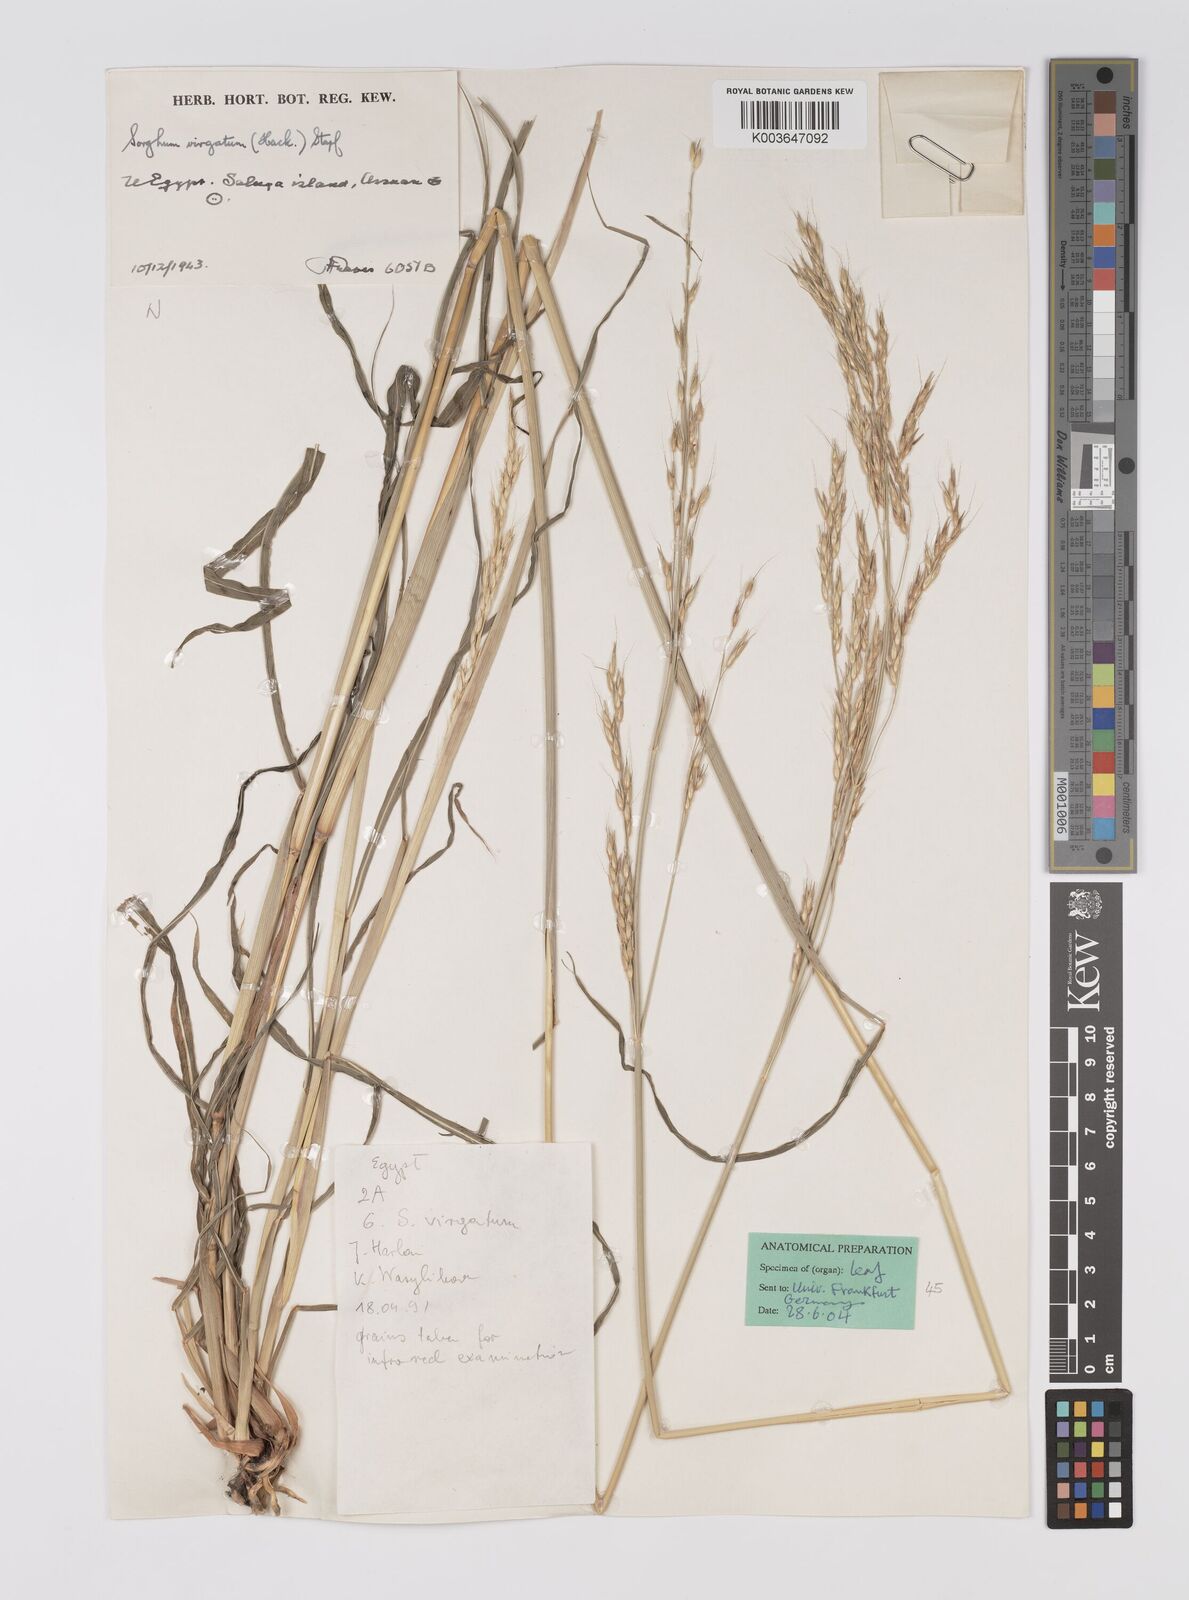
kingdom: Plantae
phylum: Tracheophyta
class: Liliopsida
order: Poales
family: Poaceae
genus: Sorghum
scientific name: Sorghum virgatum
